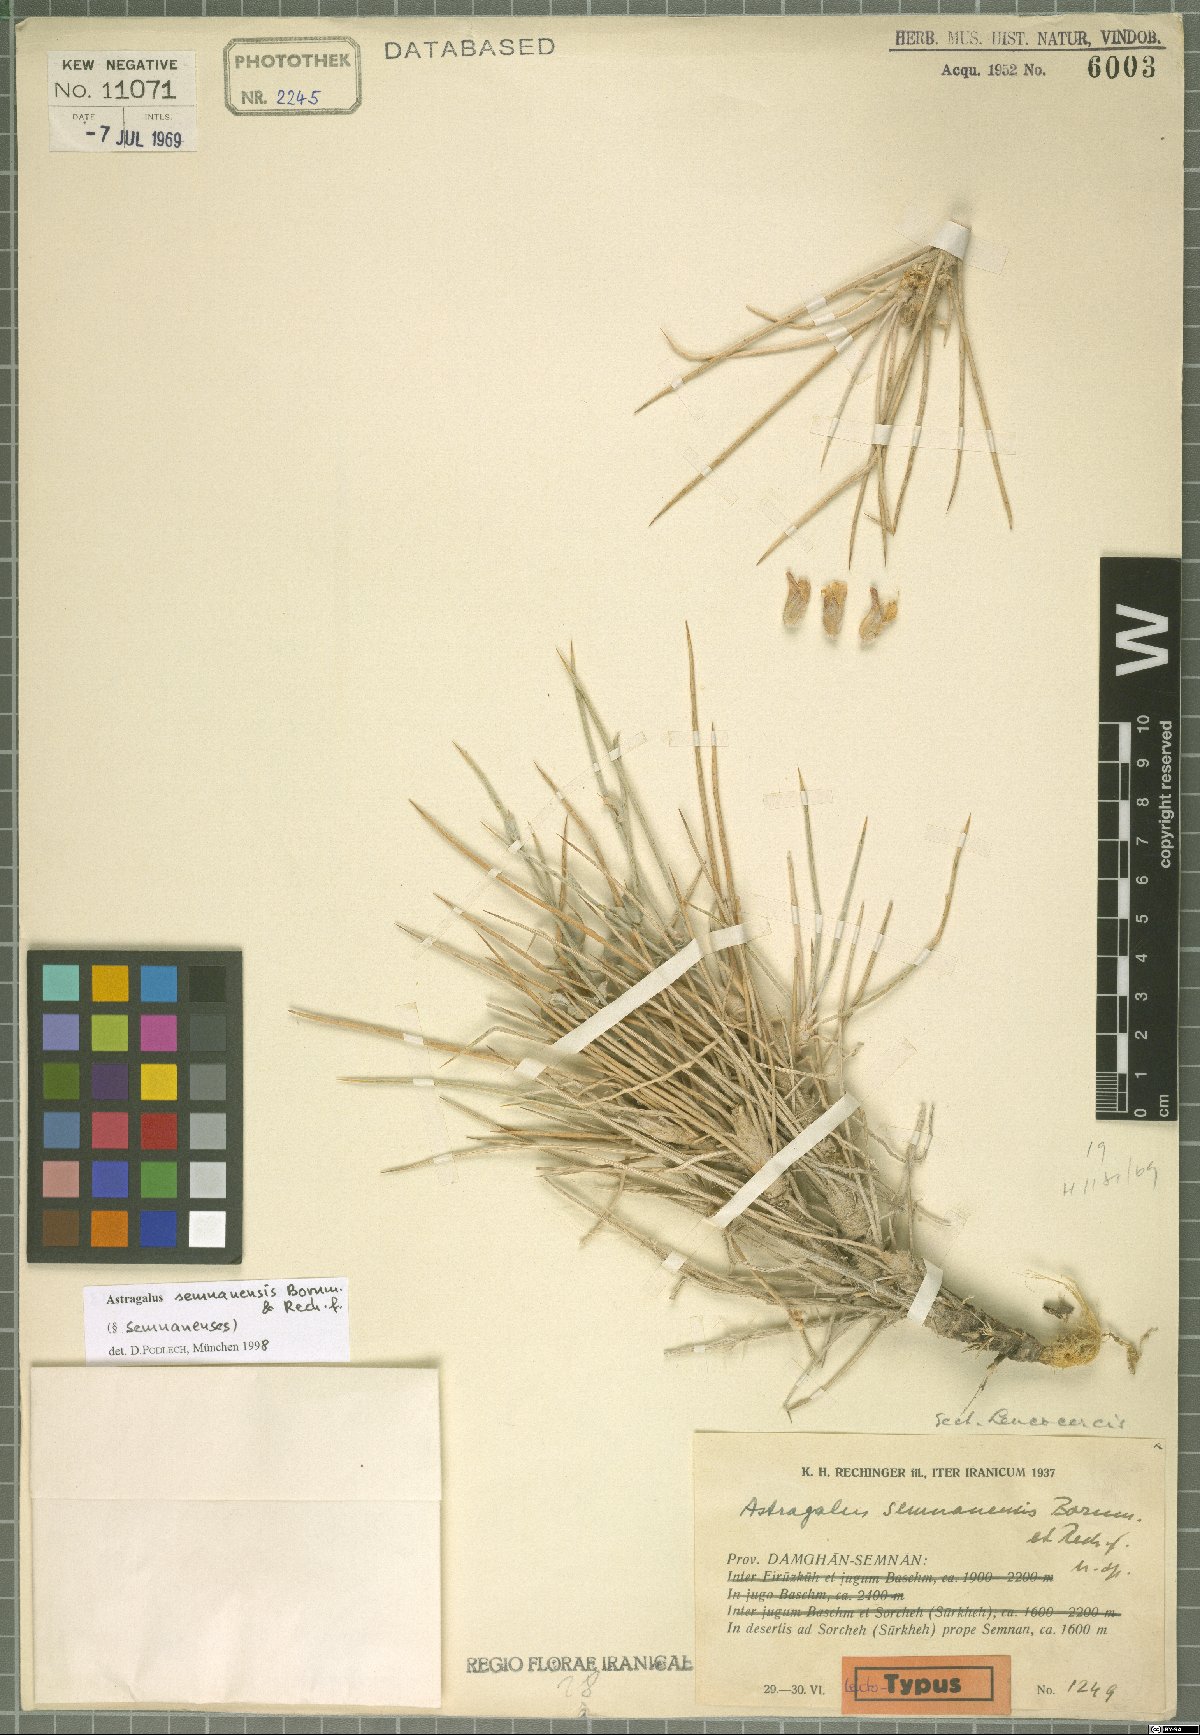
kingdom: Plantae
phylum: Tracheophyta
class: Magnoliopsida
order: Fabales
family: Fabaceae
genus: Astragalus
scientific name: Astragalus semnanensis
